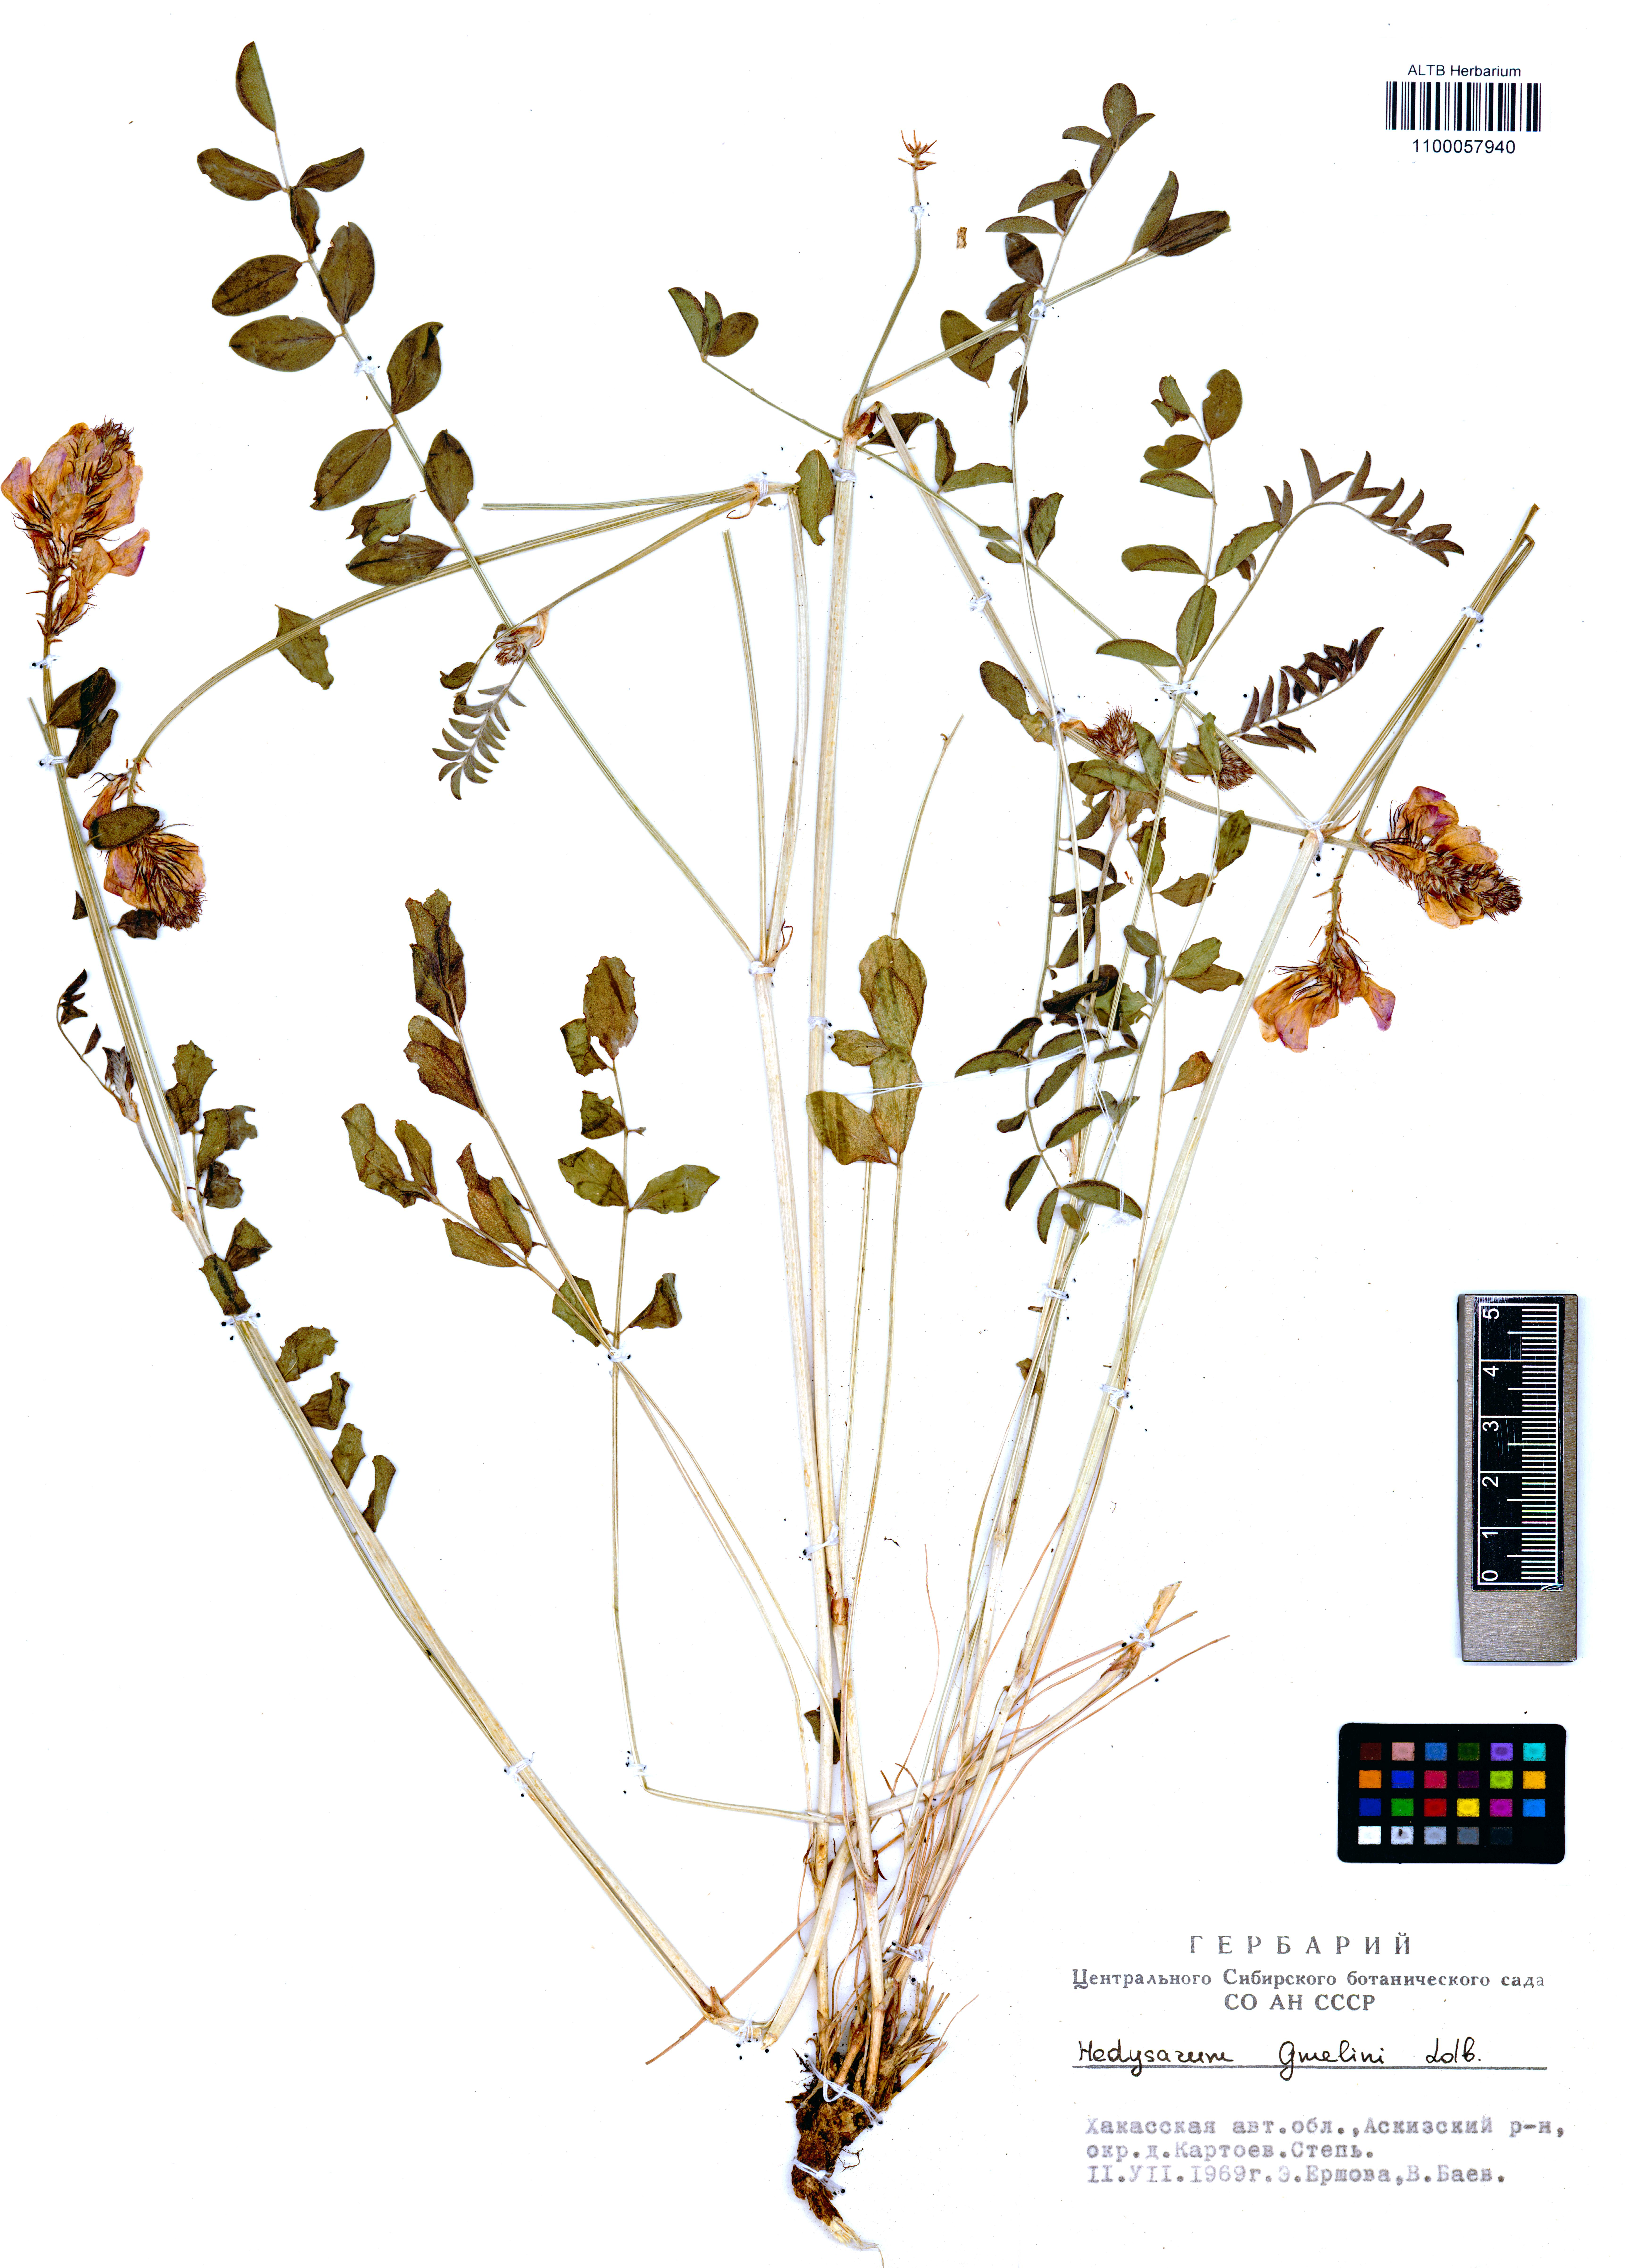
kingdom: Plantae
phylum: Tracheophyta
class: Magnoliopsida
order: Fabales
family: Fabaceae
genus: Hedysarum
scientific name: Hedysarum gmelinii
